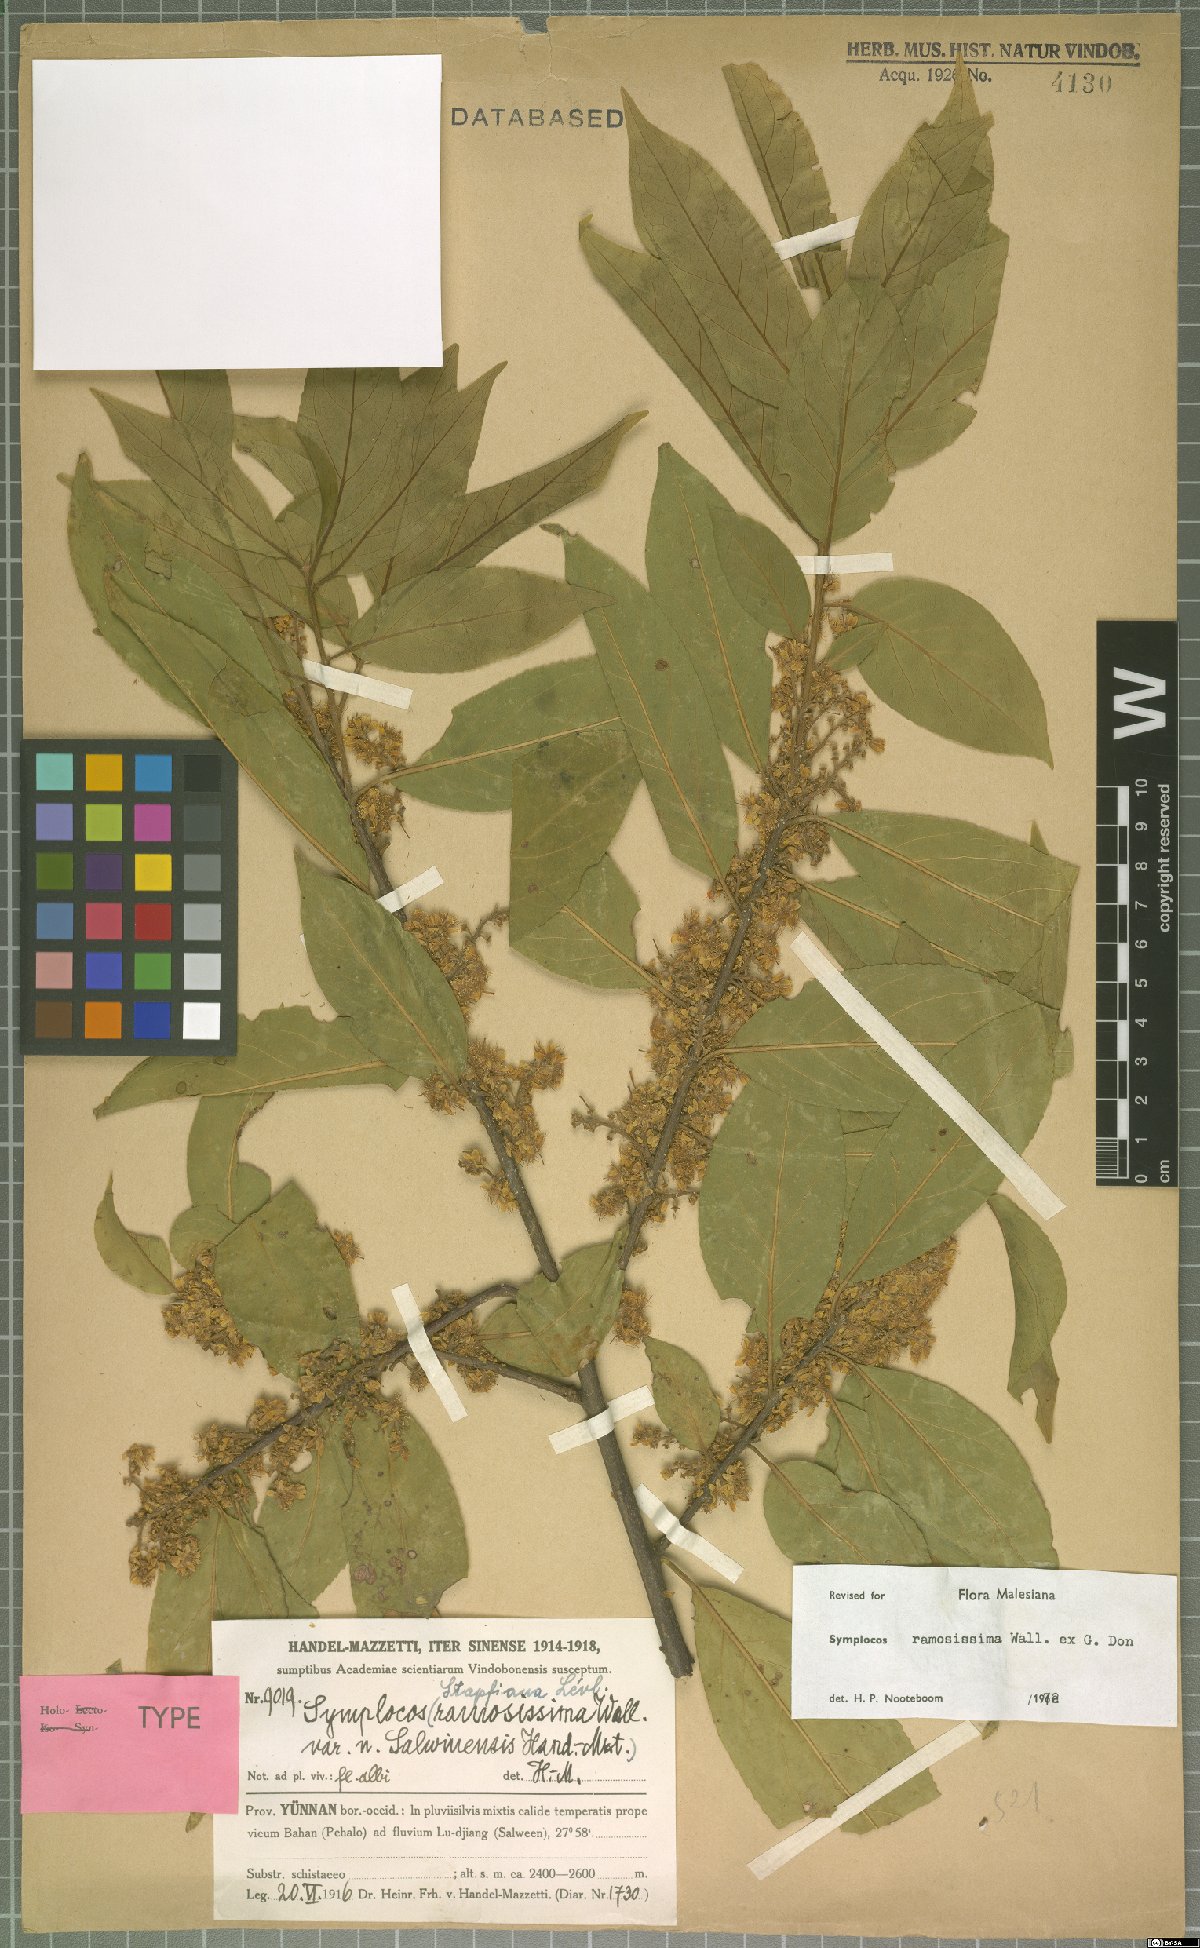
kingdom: Plantae
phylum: Tracheophyta
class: Magnoliopsida
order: Ericales
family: Symplocaceae
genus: Symplocos
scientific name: Symplocos ramosissima
